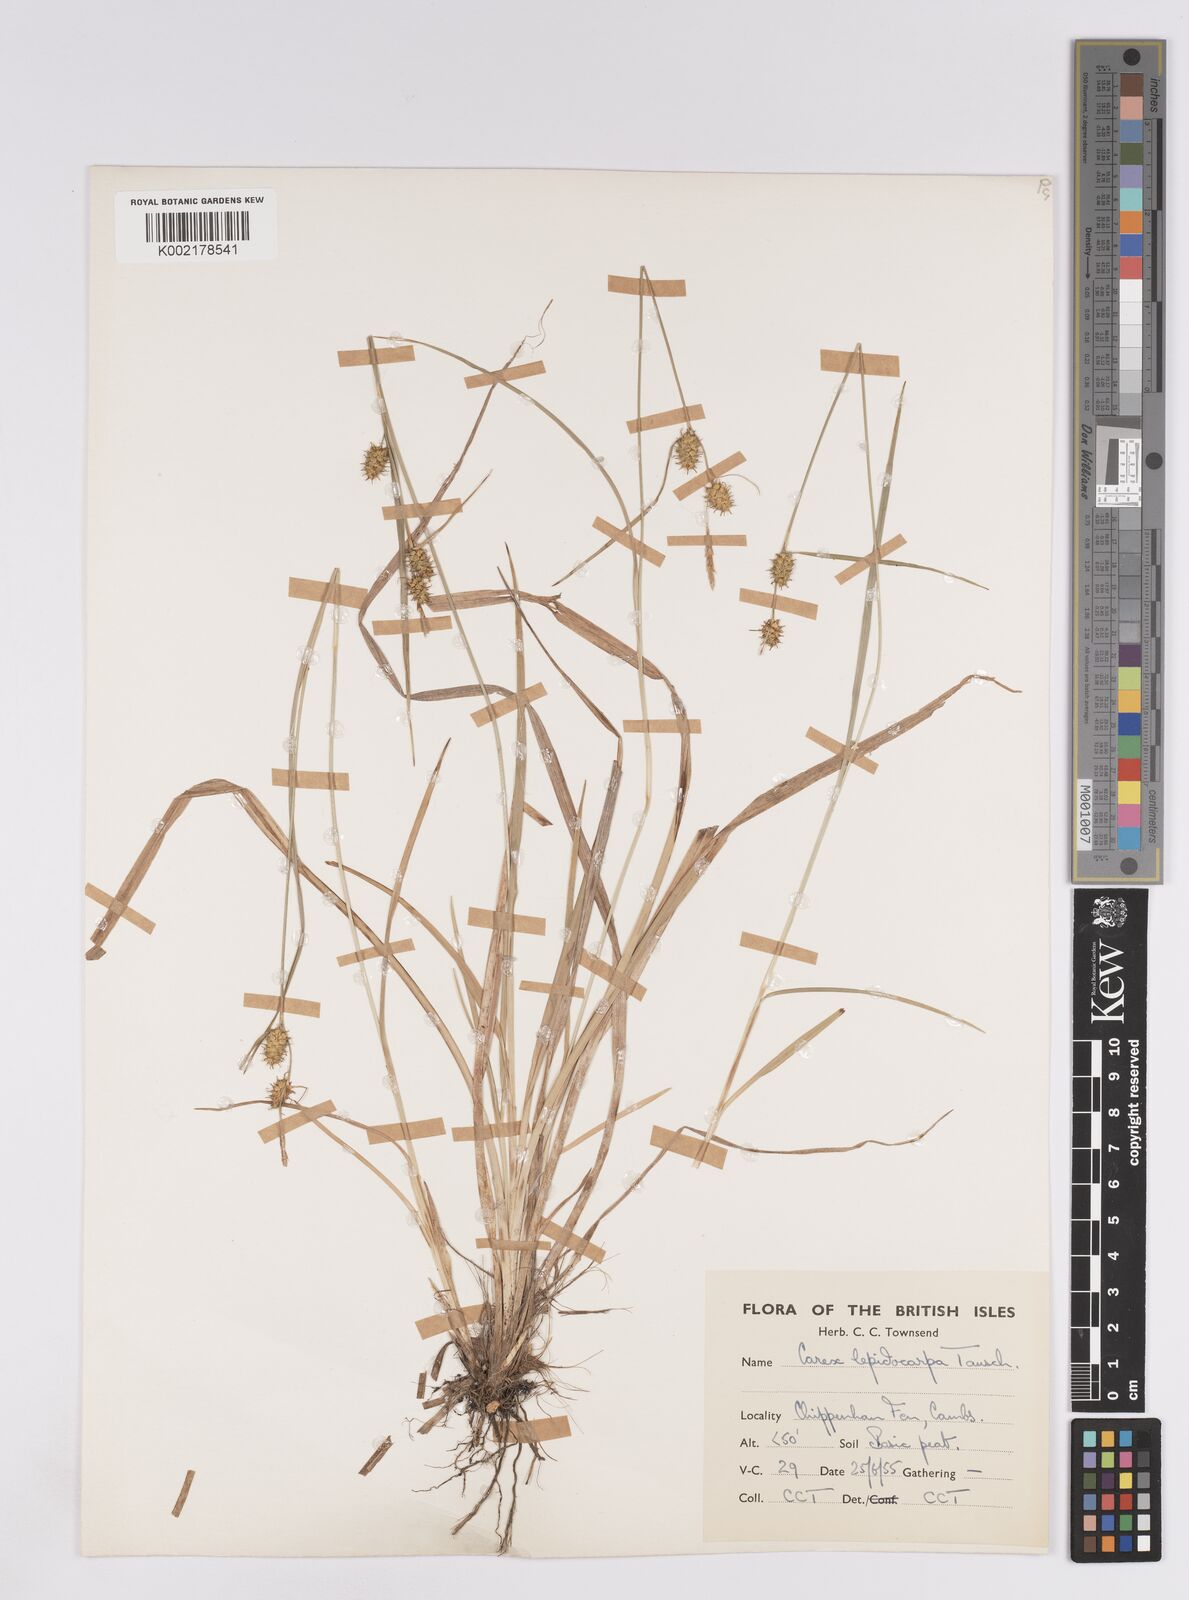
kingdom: Plantae
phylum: Tracheophyta
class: Liliopsida
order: Poales
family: Cyperaceae
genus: Carex
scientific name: Carex lepidocarpa
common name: Long-stalked yellow-sedge
